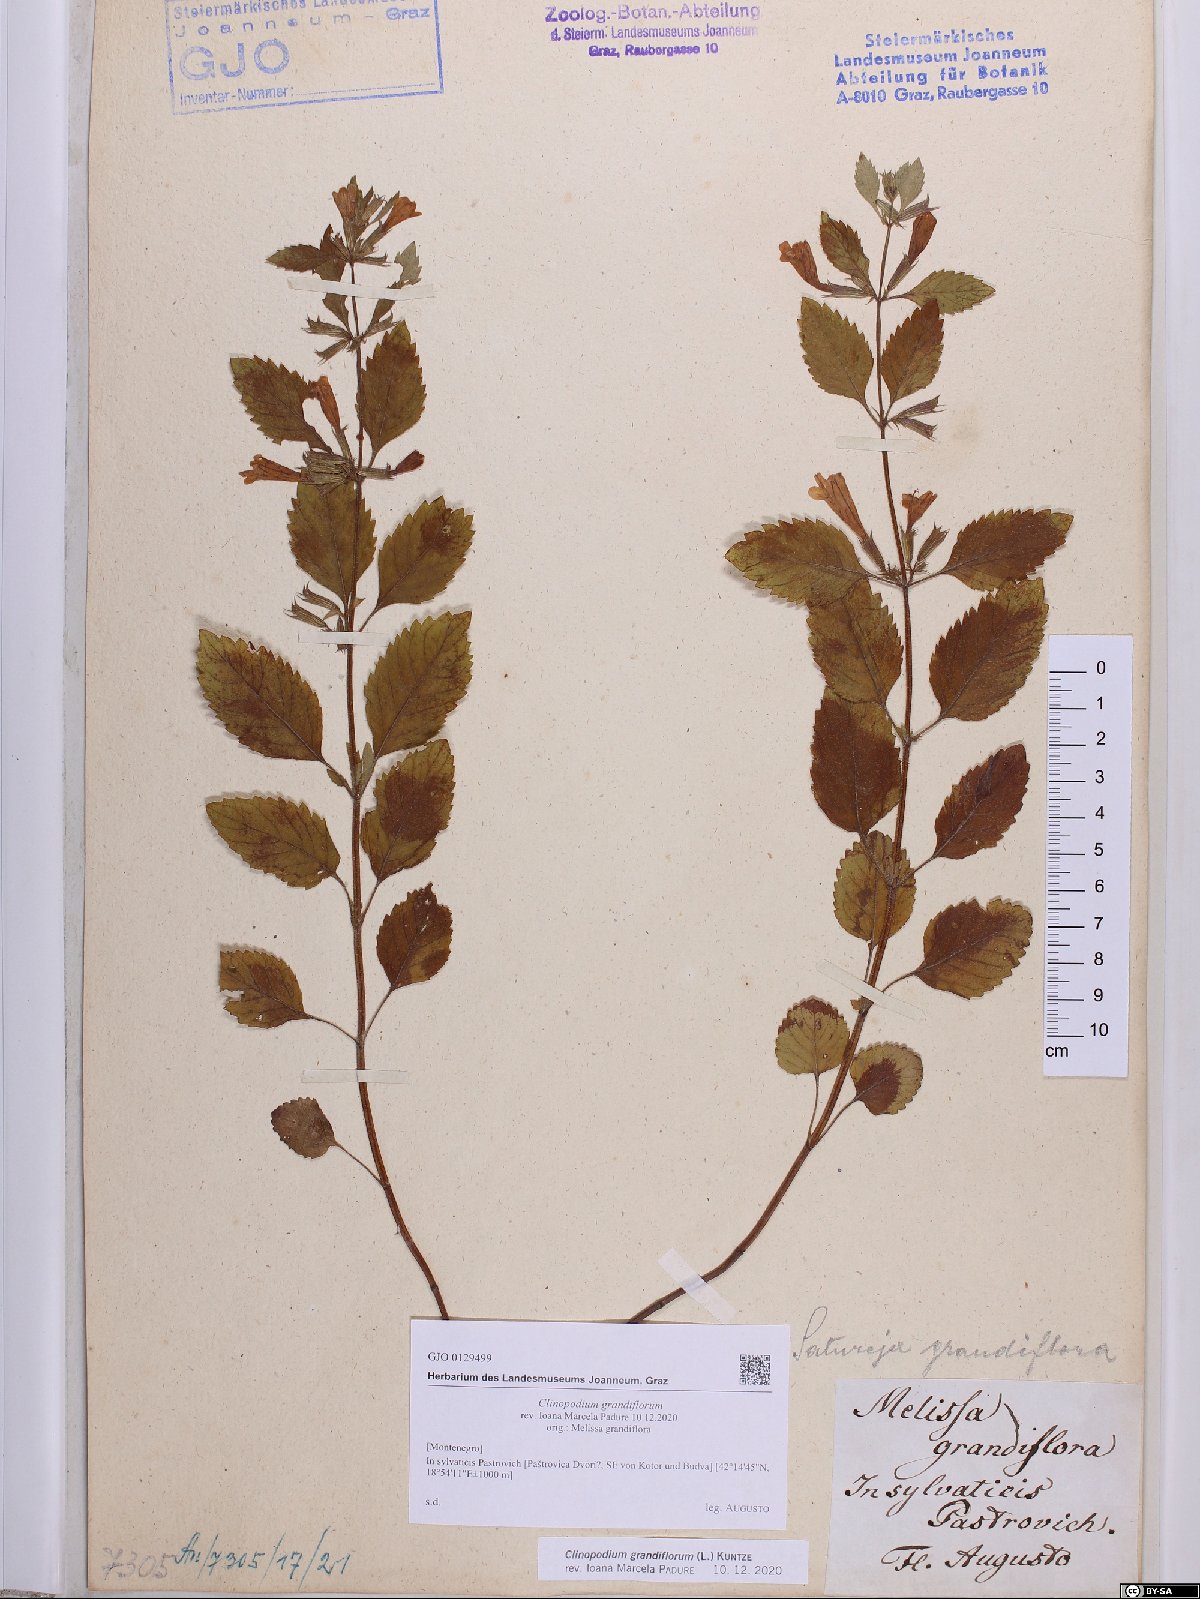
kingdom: Plantae
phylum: Tracheophyta
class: Magnoliopsida
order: Lamiales
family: Lamiaceae
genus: Clinopodium
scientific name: Clinopodium grandiflorum
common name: Greater calamint
